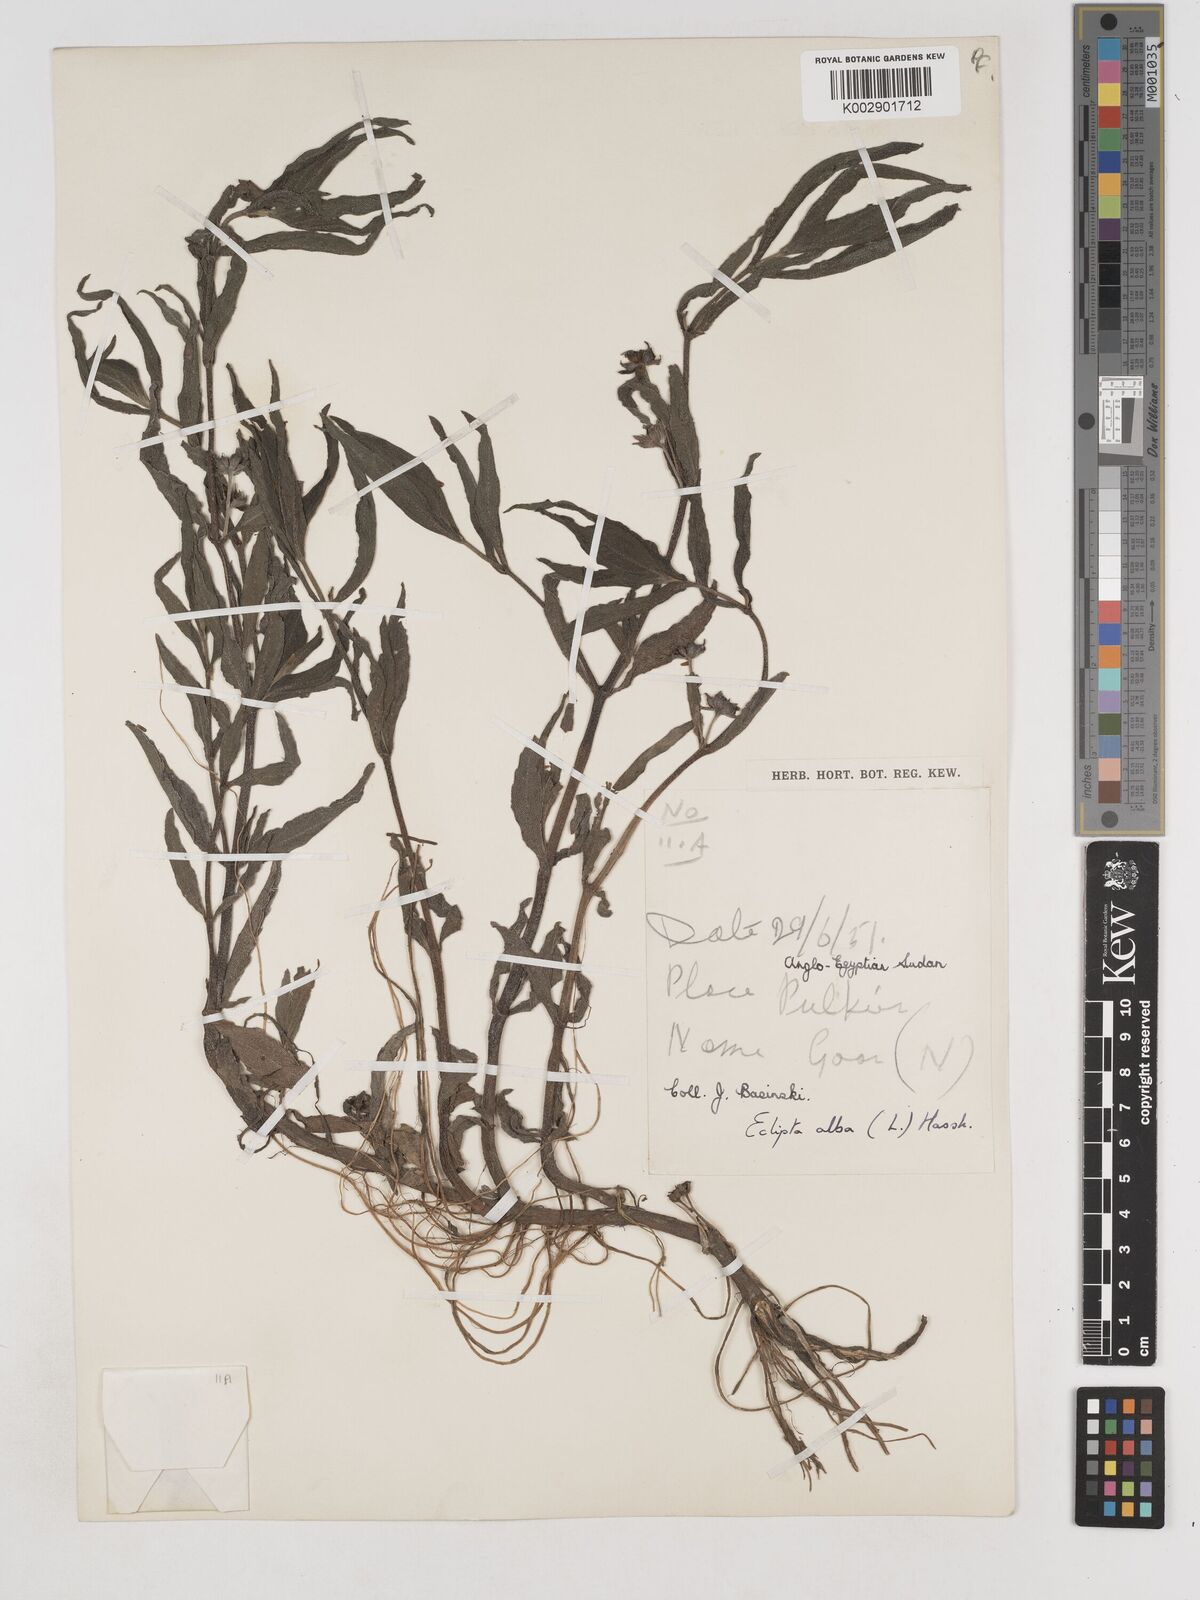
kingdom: Plantae
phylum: Tracheophyta
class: Magnoliopsida
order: Asterales
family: Asteraceae
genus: Eclipta
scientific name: Eclipta alba
